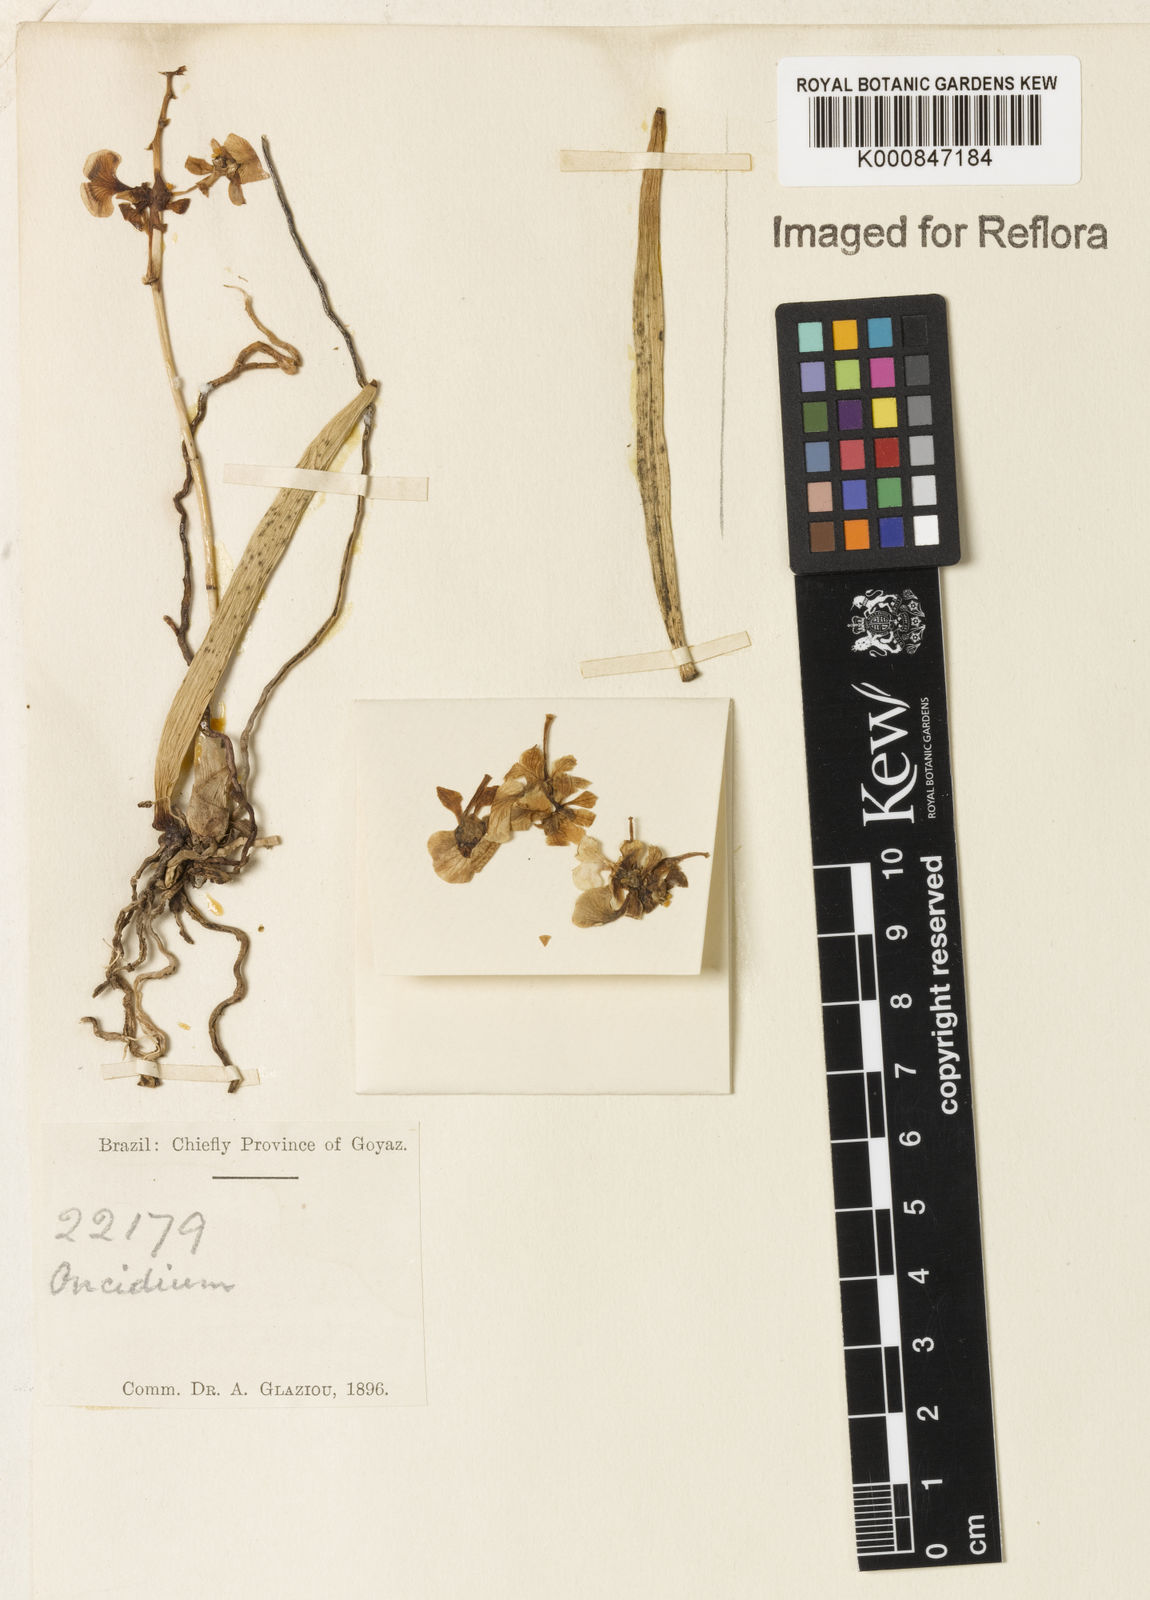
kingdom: Plantae
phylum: Tracheophyta
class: Liliopsida
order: Asparagales
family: Orchidaceae
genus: Oncidium
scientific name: Oncidium
